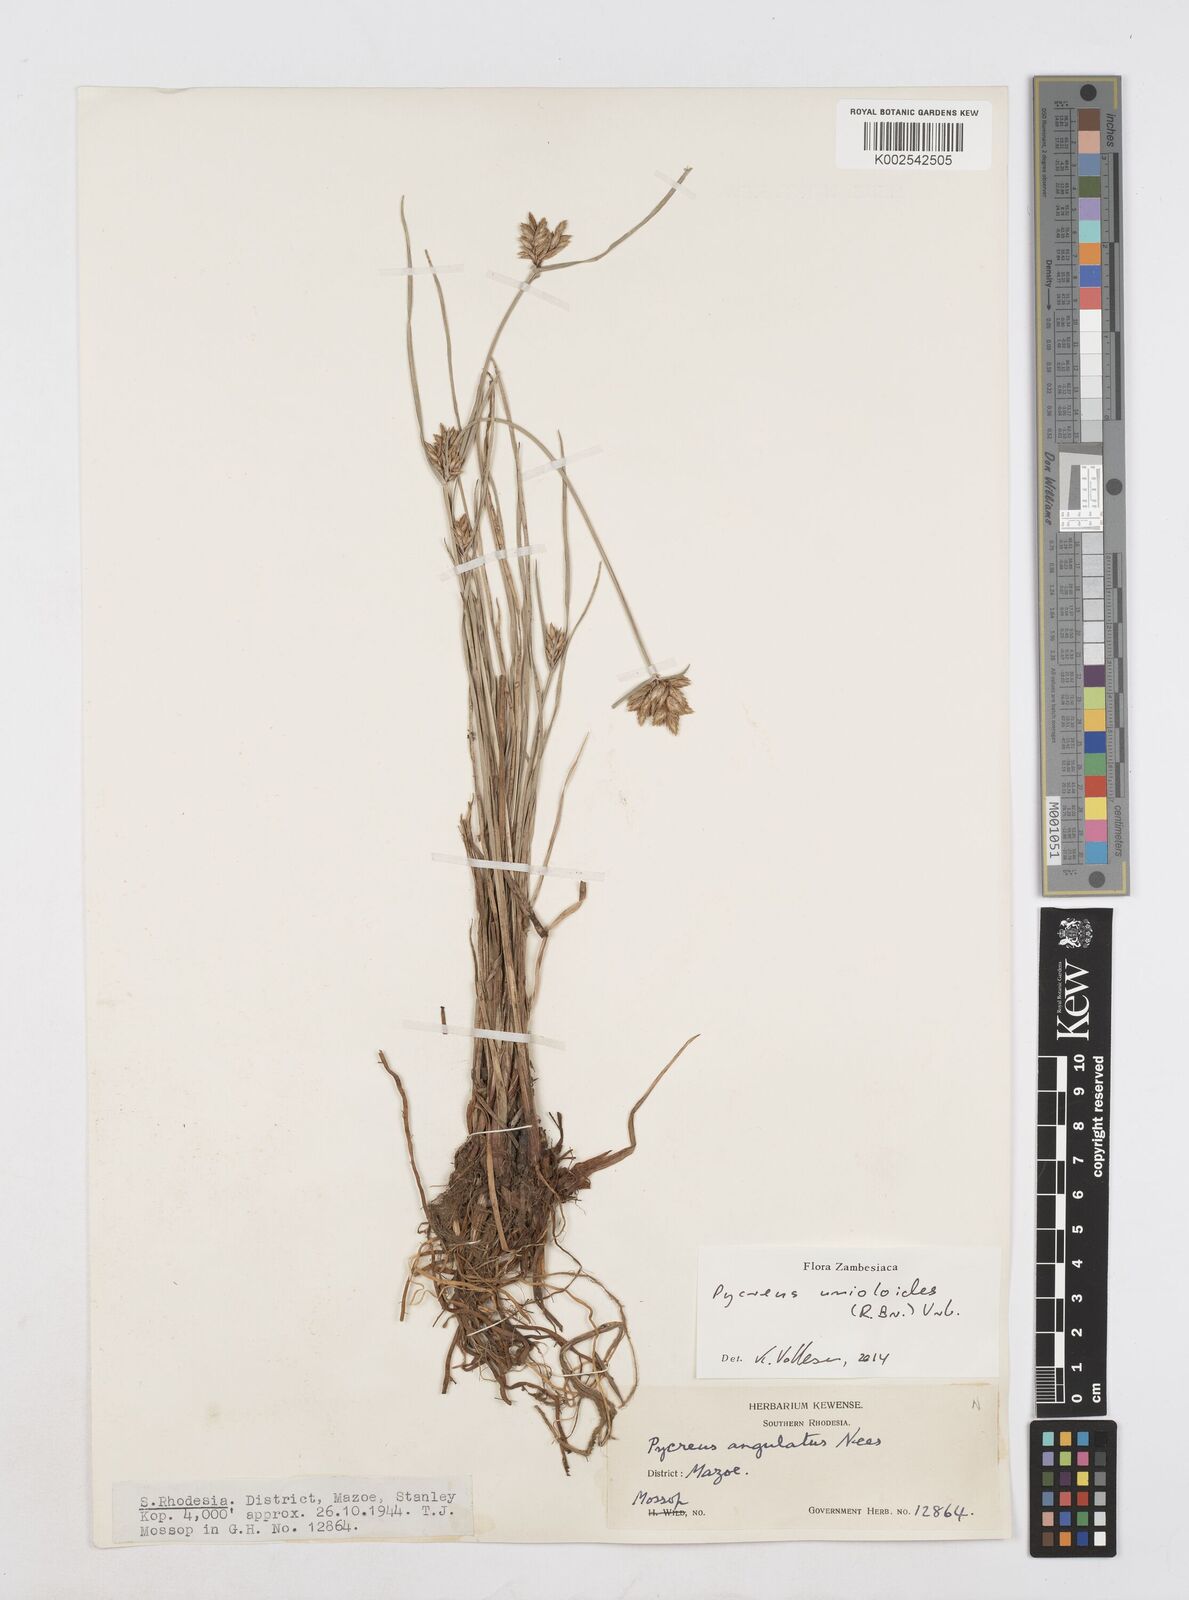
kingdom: Plantae
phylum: Tracheophyta
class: Liliopsida
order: Poales
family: Cyperaceae
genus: Cyperus
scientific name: Cyperus unioloides
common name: Uniola flatsedge
